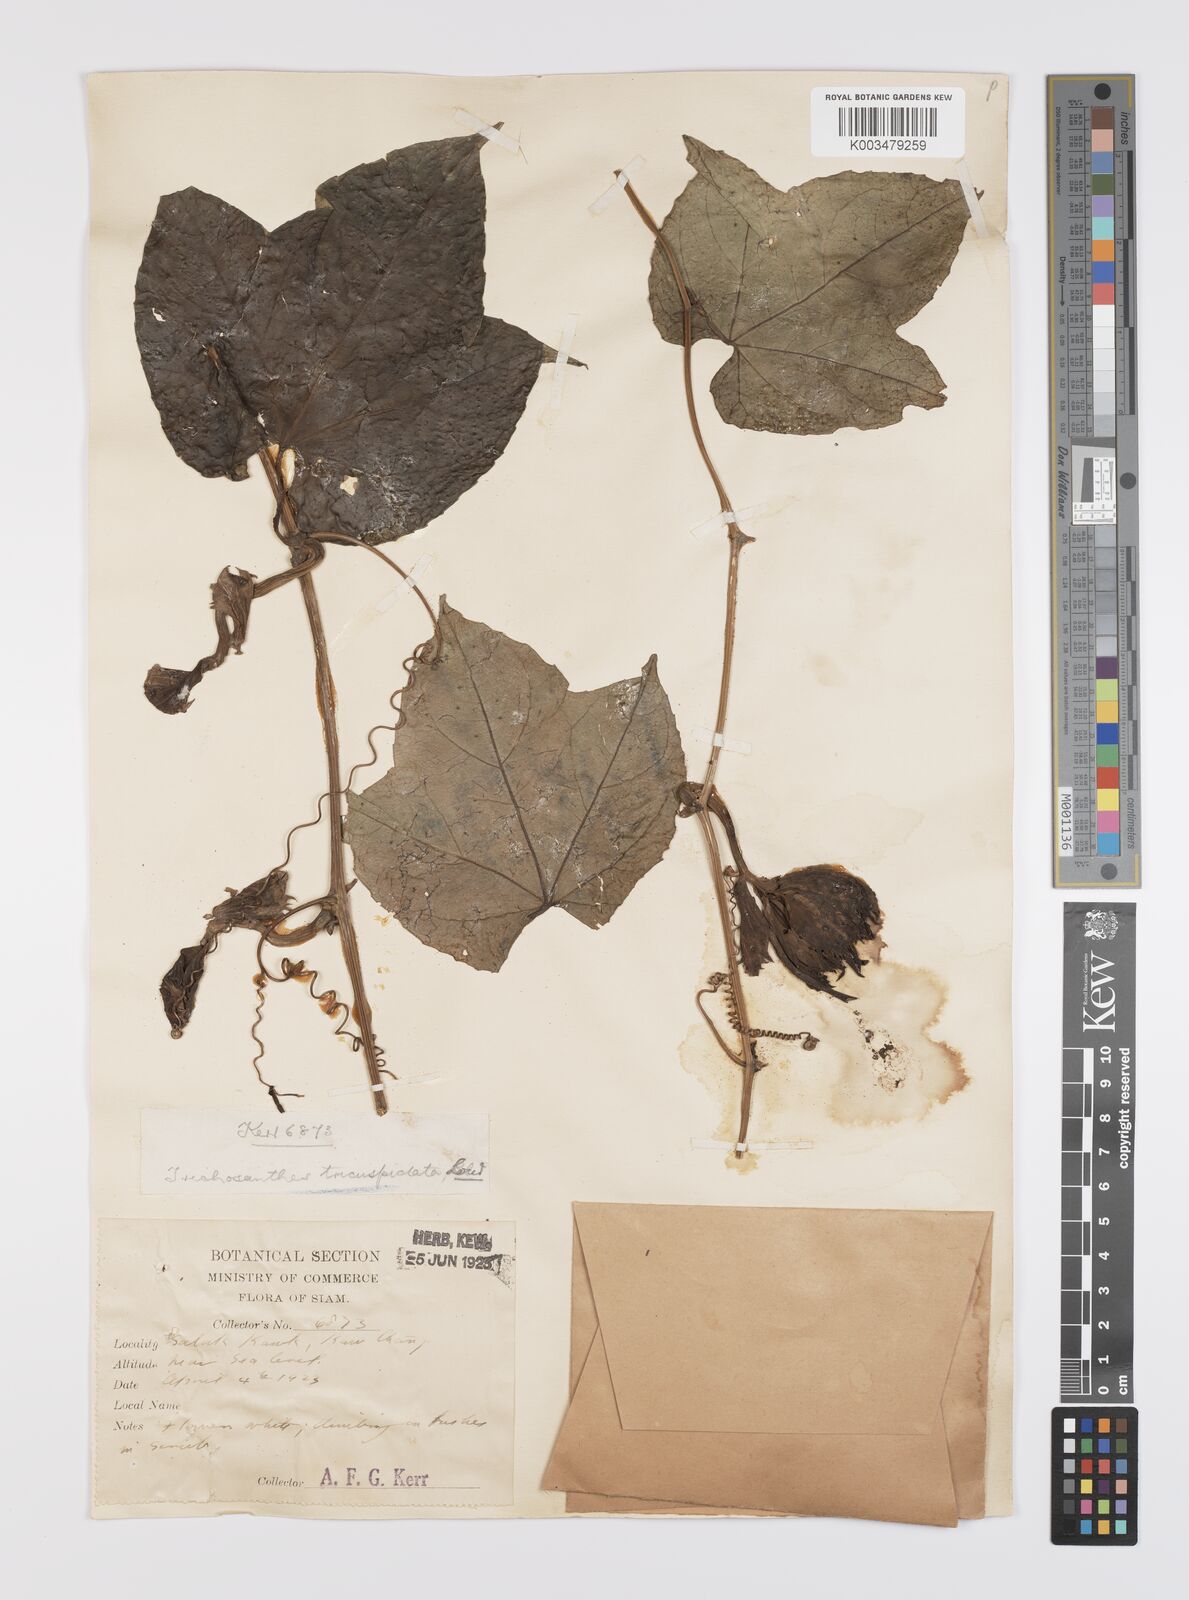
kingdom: Plantae
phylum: Tracheophyta
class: Magnoliopsida
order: Cucurbitales
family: Cucurbitaceae
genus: Trichosanthes
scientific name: Trichosanthes tricuspidata
